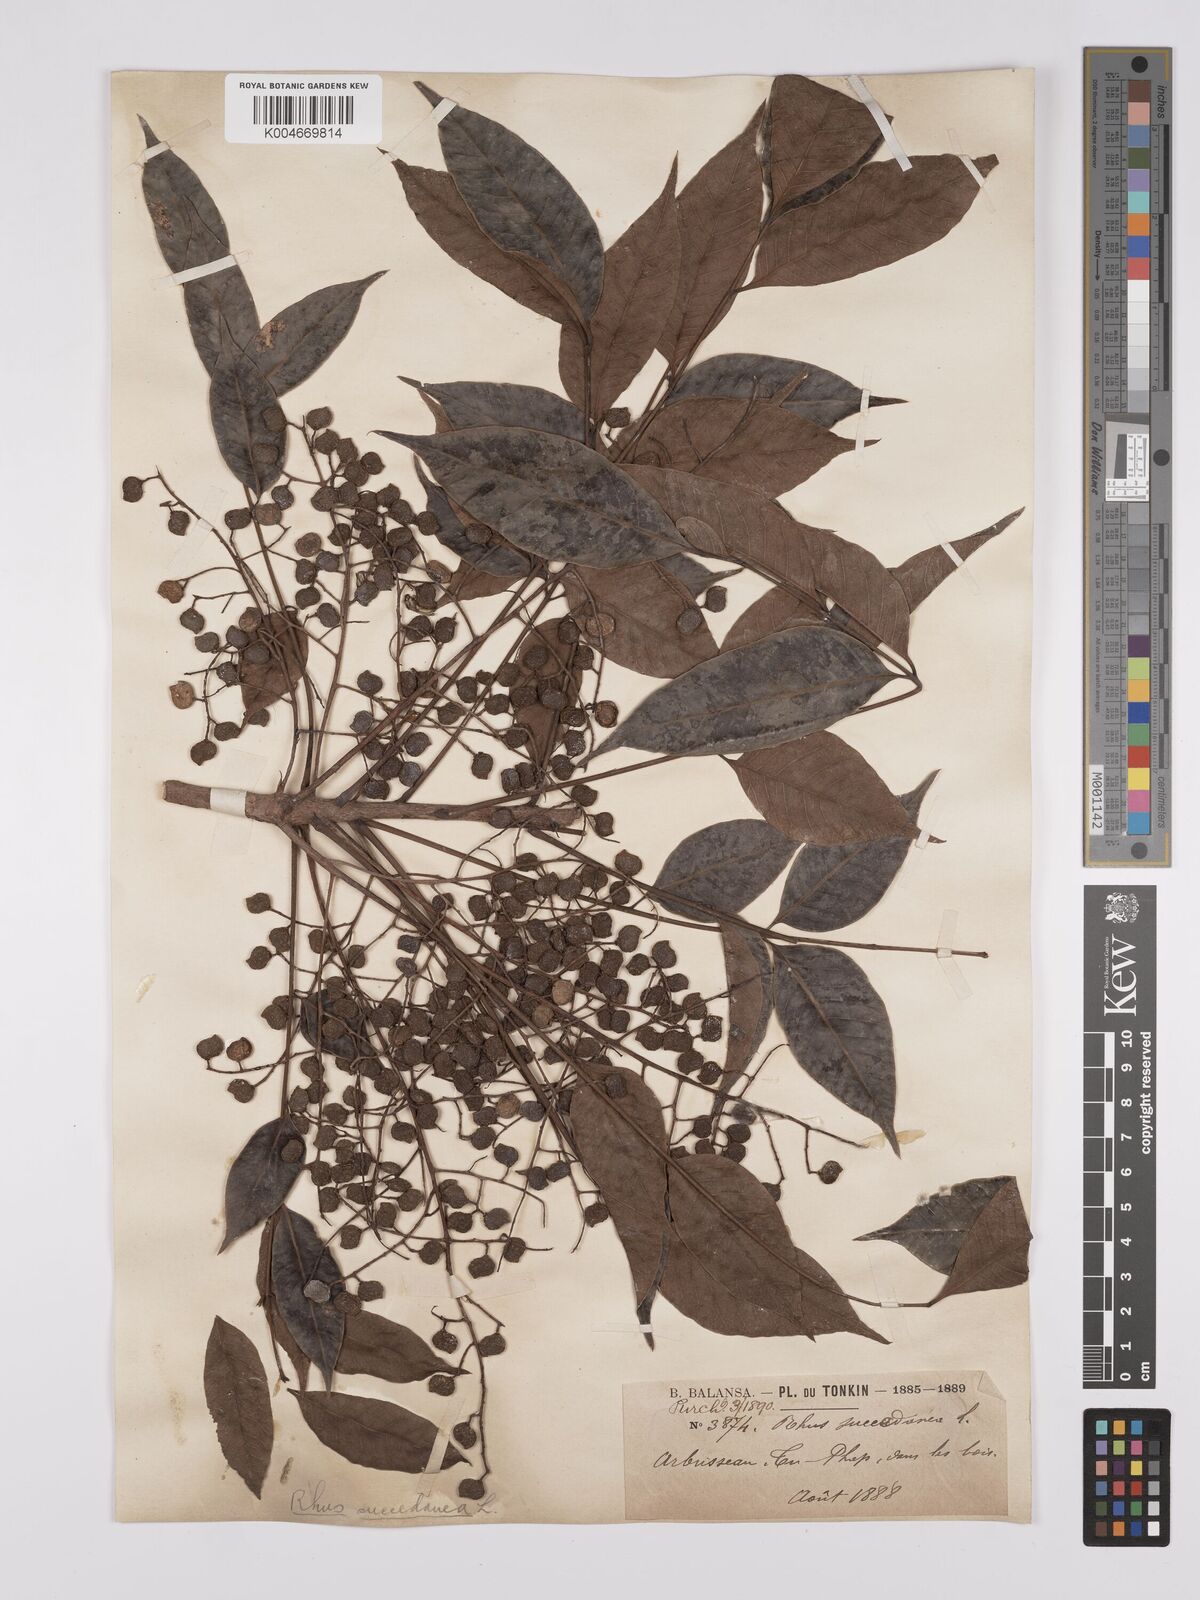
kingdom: Plantae
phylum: Tracheophyta
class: Magnoliopsida
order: Sapindales
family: Anacardiaceae
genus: Toxicodendron
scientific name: Toxicodendron succedaneum
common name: Wax tree
